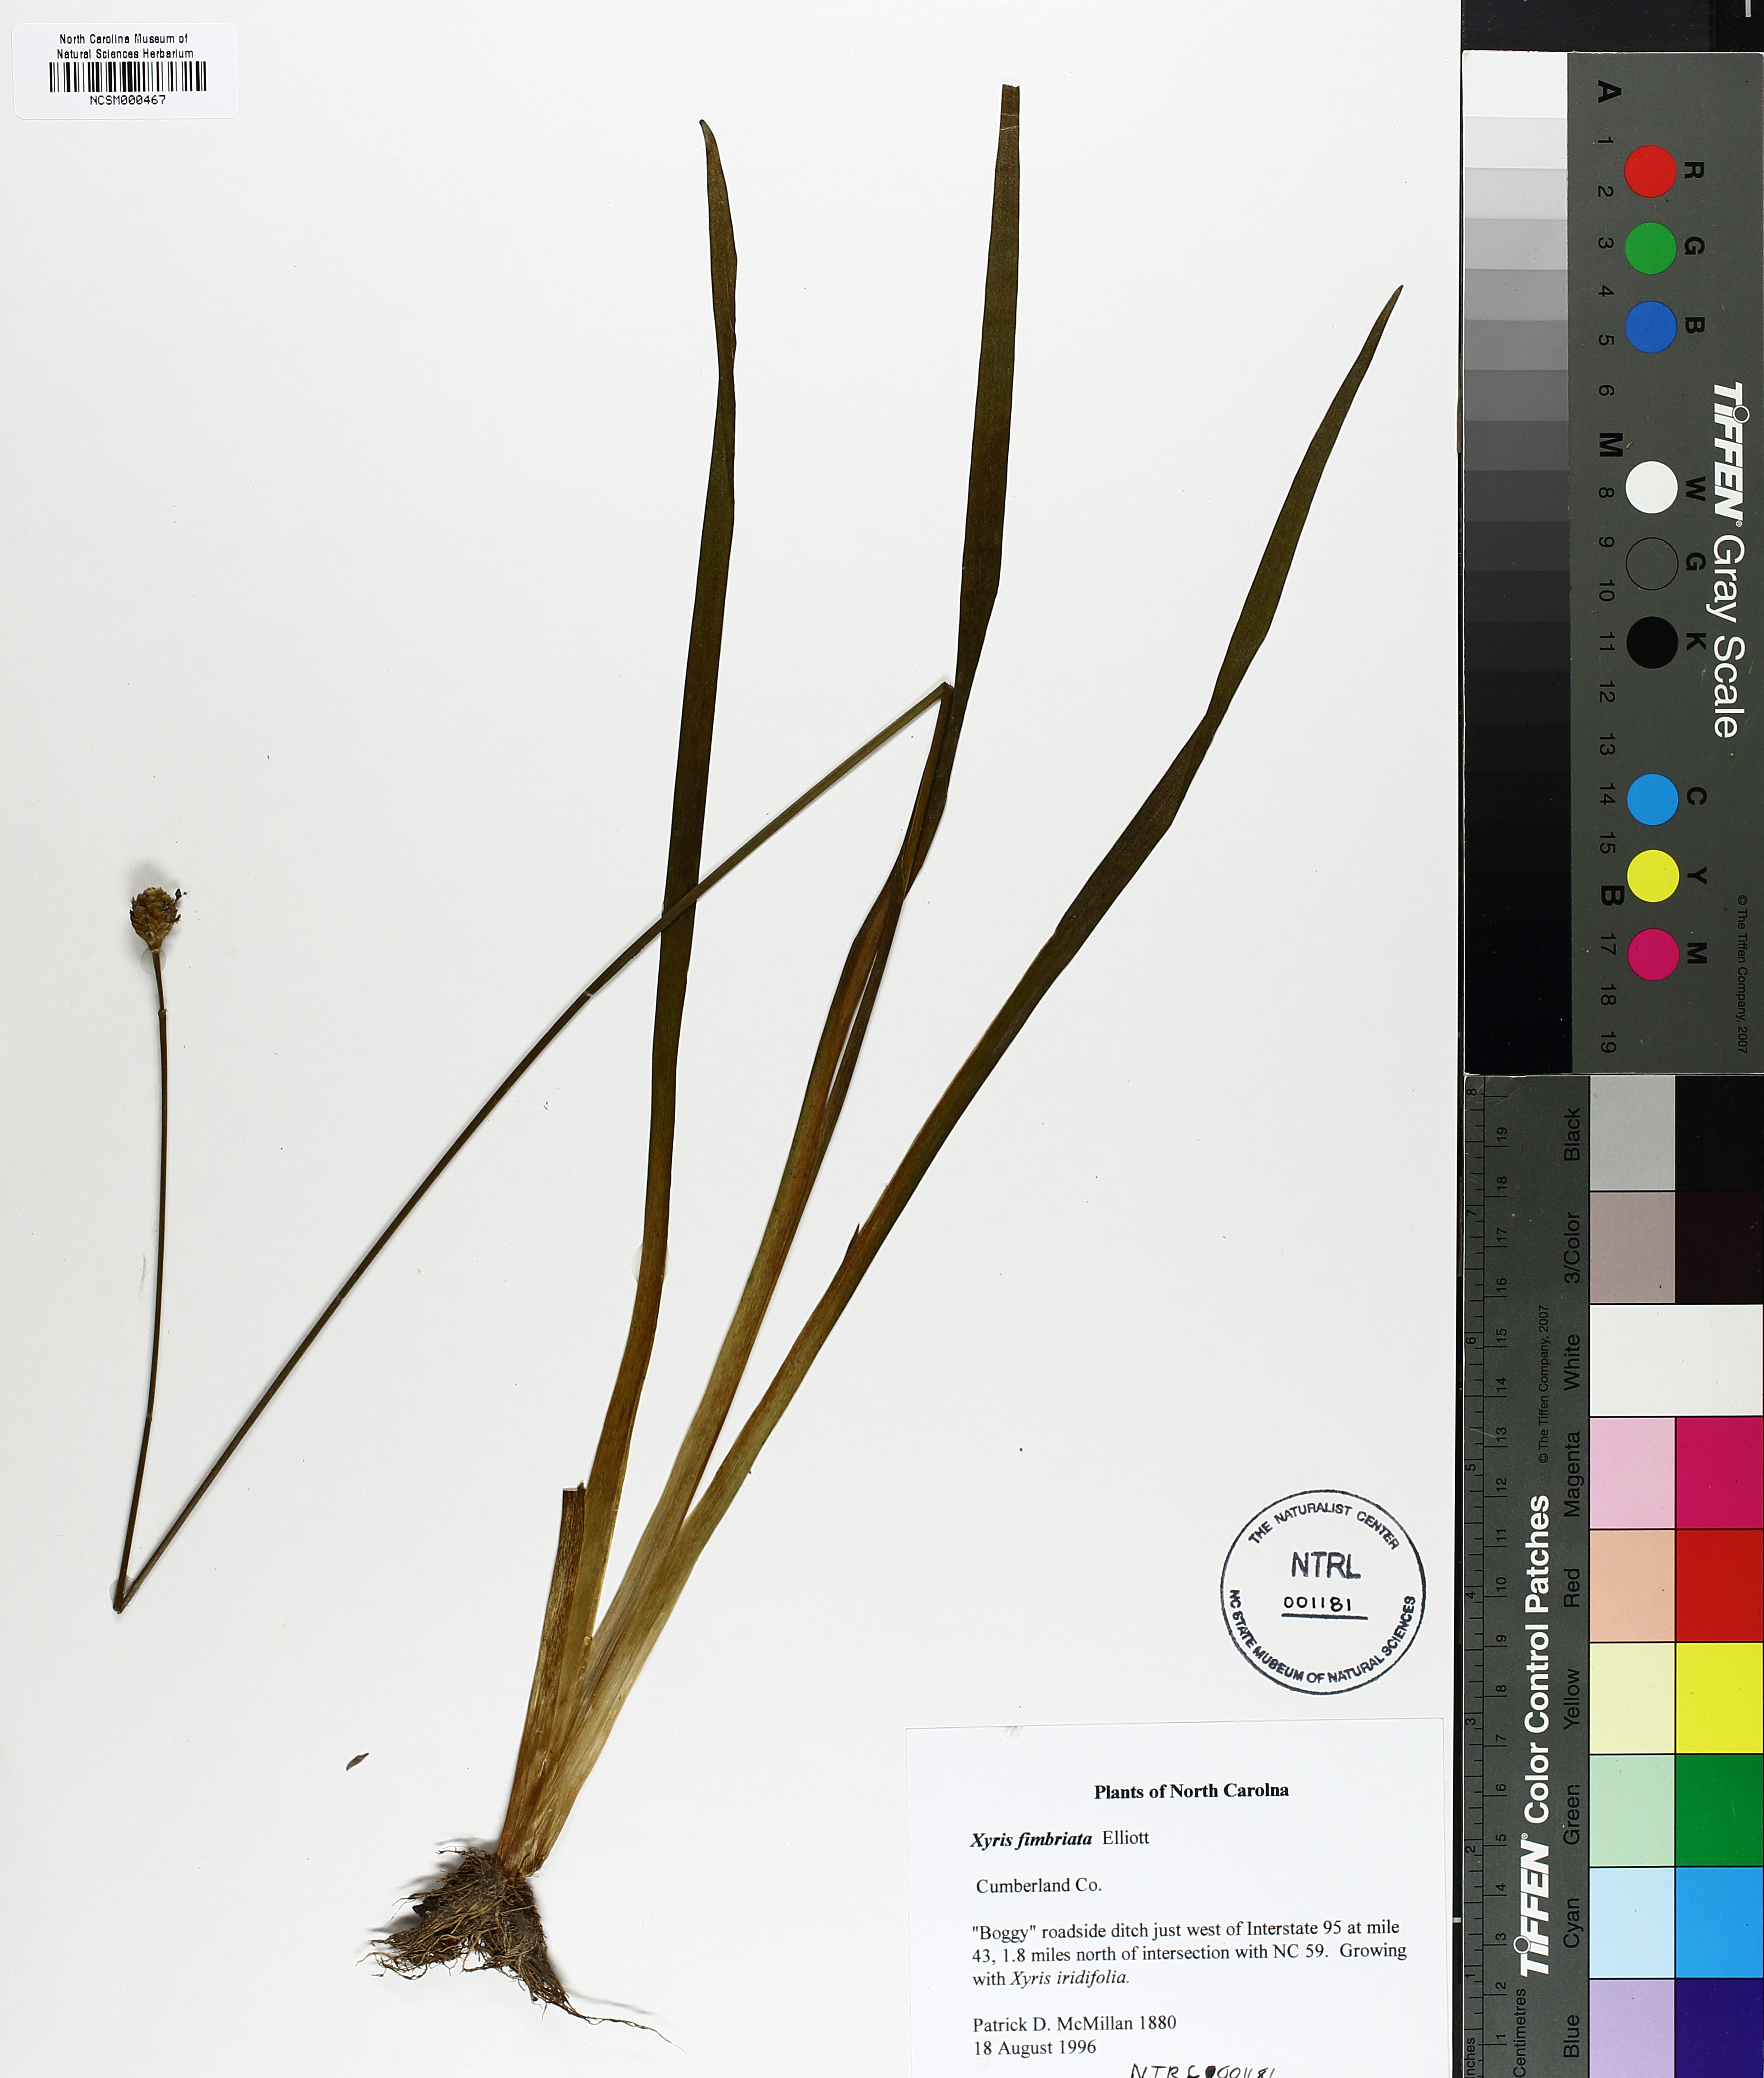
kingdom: Plantae
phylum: Tracheophyta
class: Liliopsida
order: Poales
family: Xyridaceae
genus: Xyris
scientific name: Xyris fimbriata
